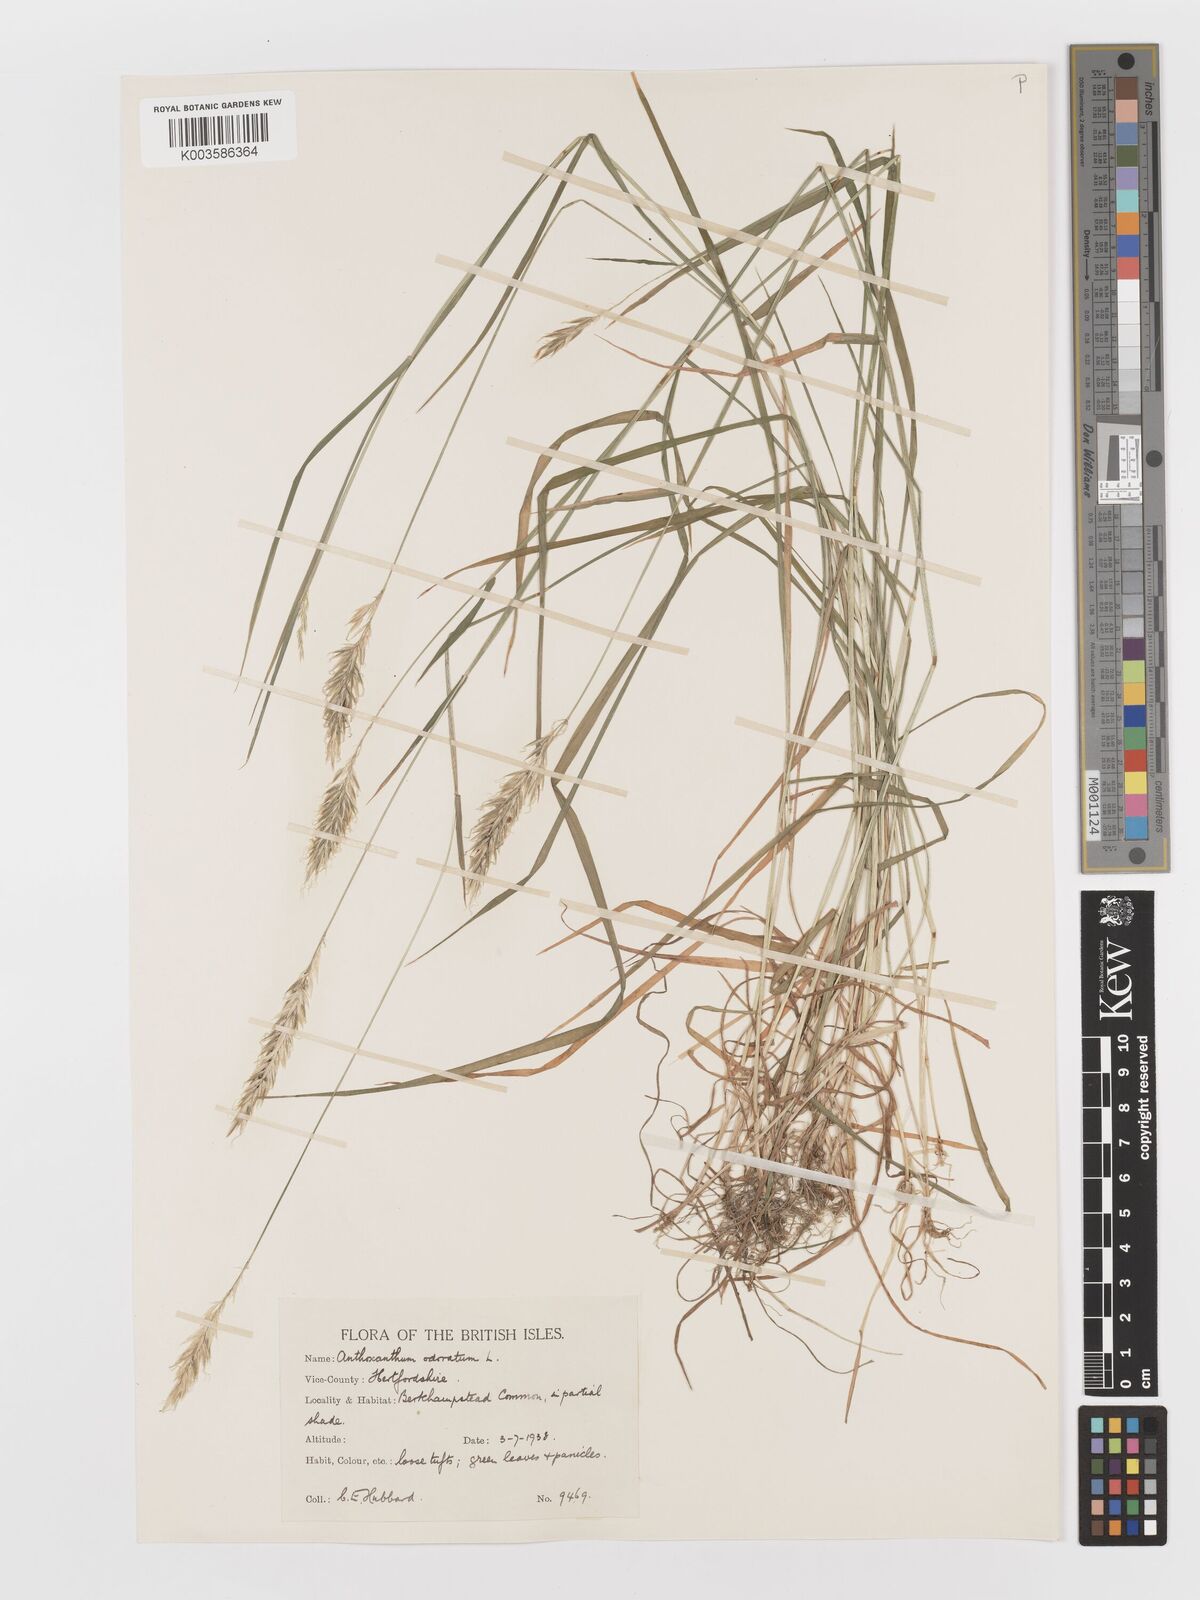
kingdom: Plantae
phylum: Tracheophyta
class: Liliopsida
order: Poales
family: Poaceae
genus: Anthoxanthum
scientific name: Anthoxanthum odoratum
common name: Sweet vernalgrass
